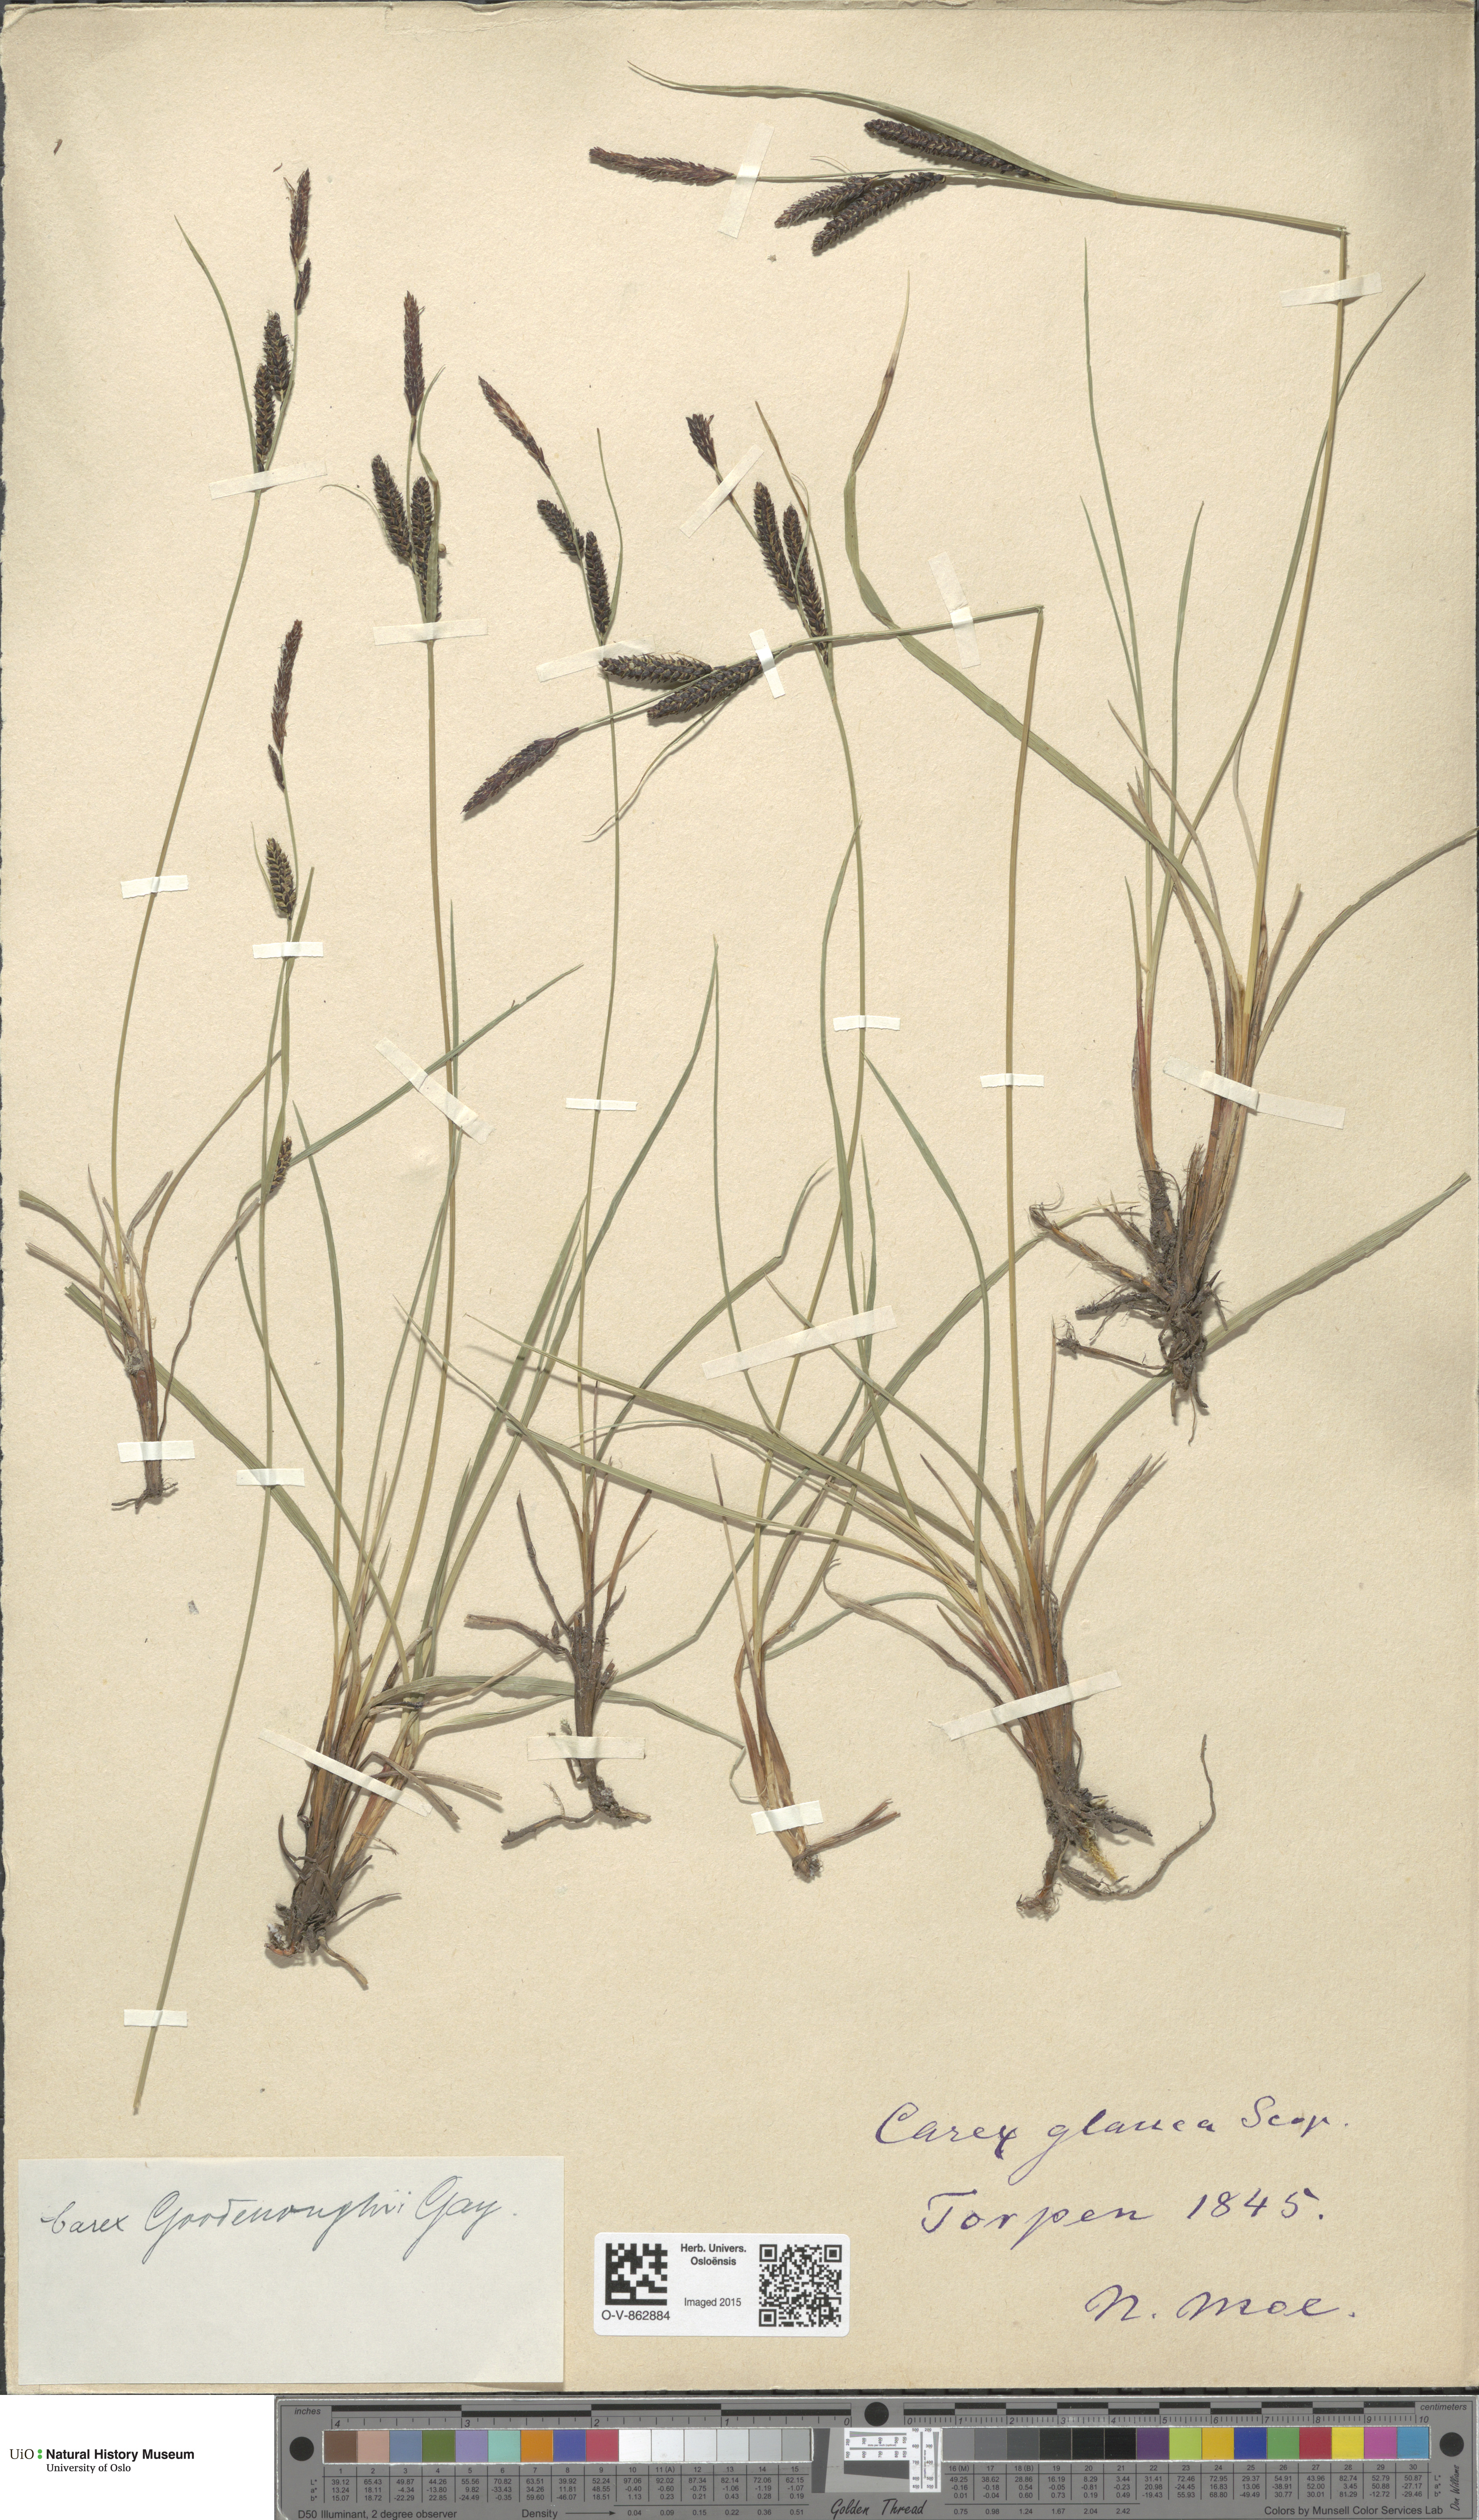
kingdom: Plantae
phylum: Tracheophyta
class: Liliopsida
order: Poales
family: Cyperaceae
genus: Carex
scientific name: Carex nigra
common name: Common sedge
